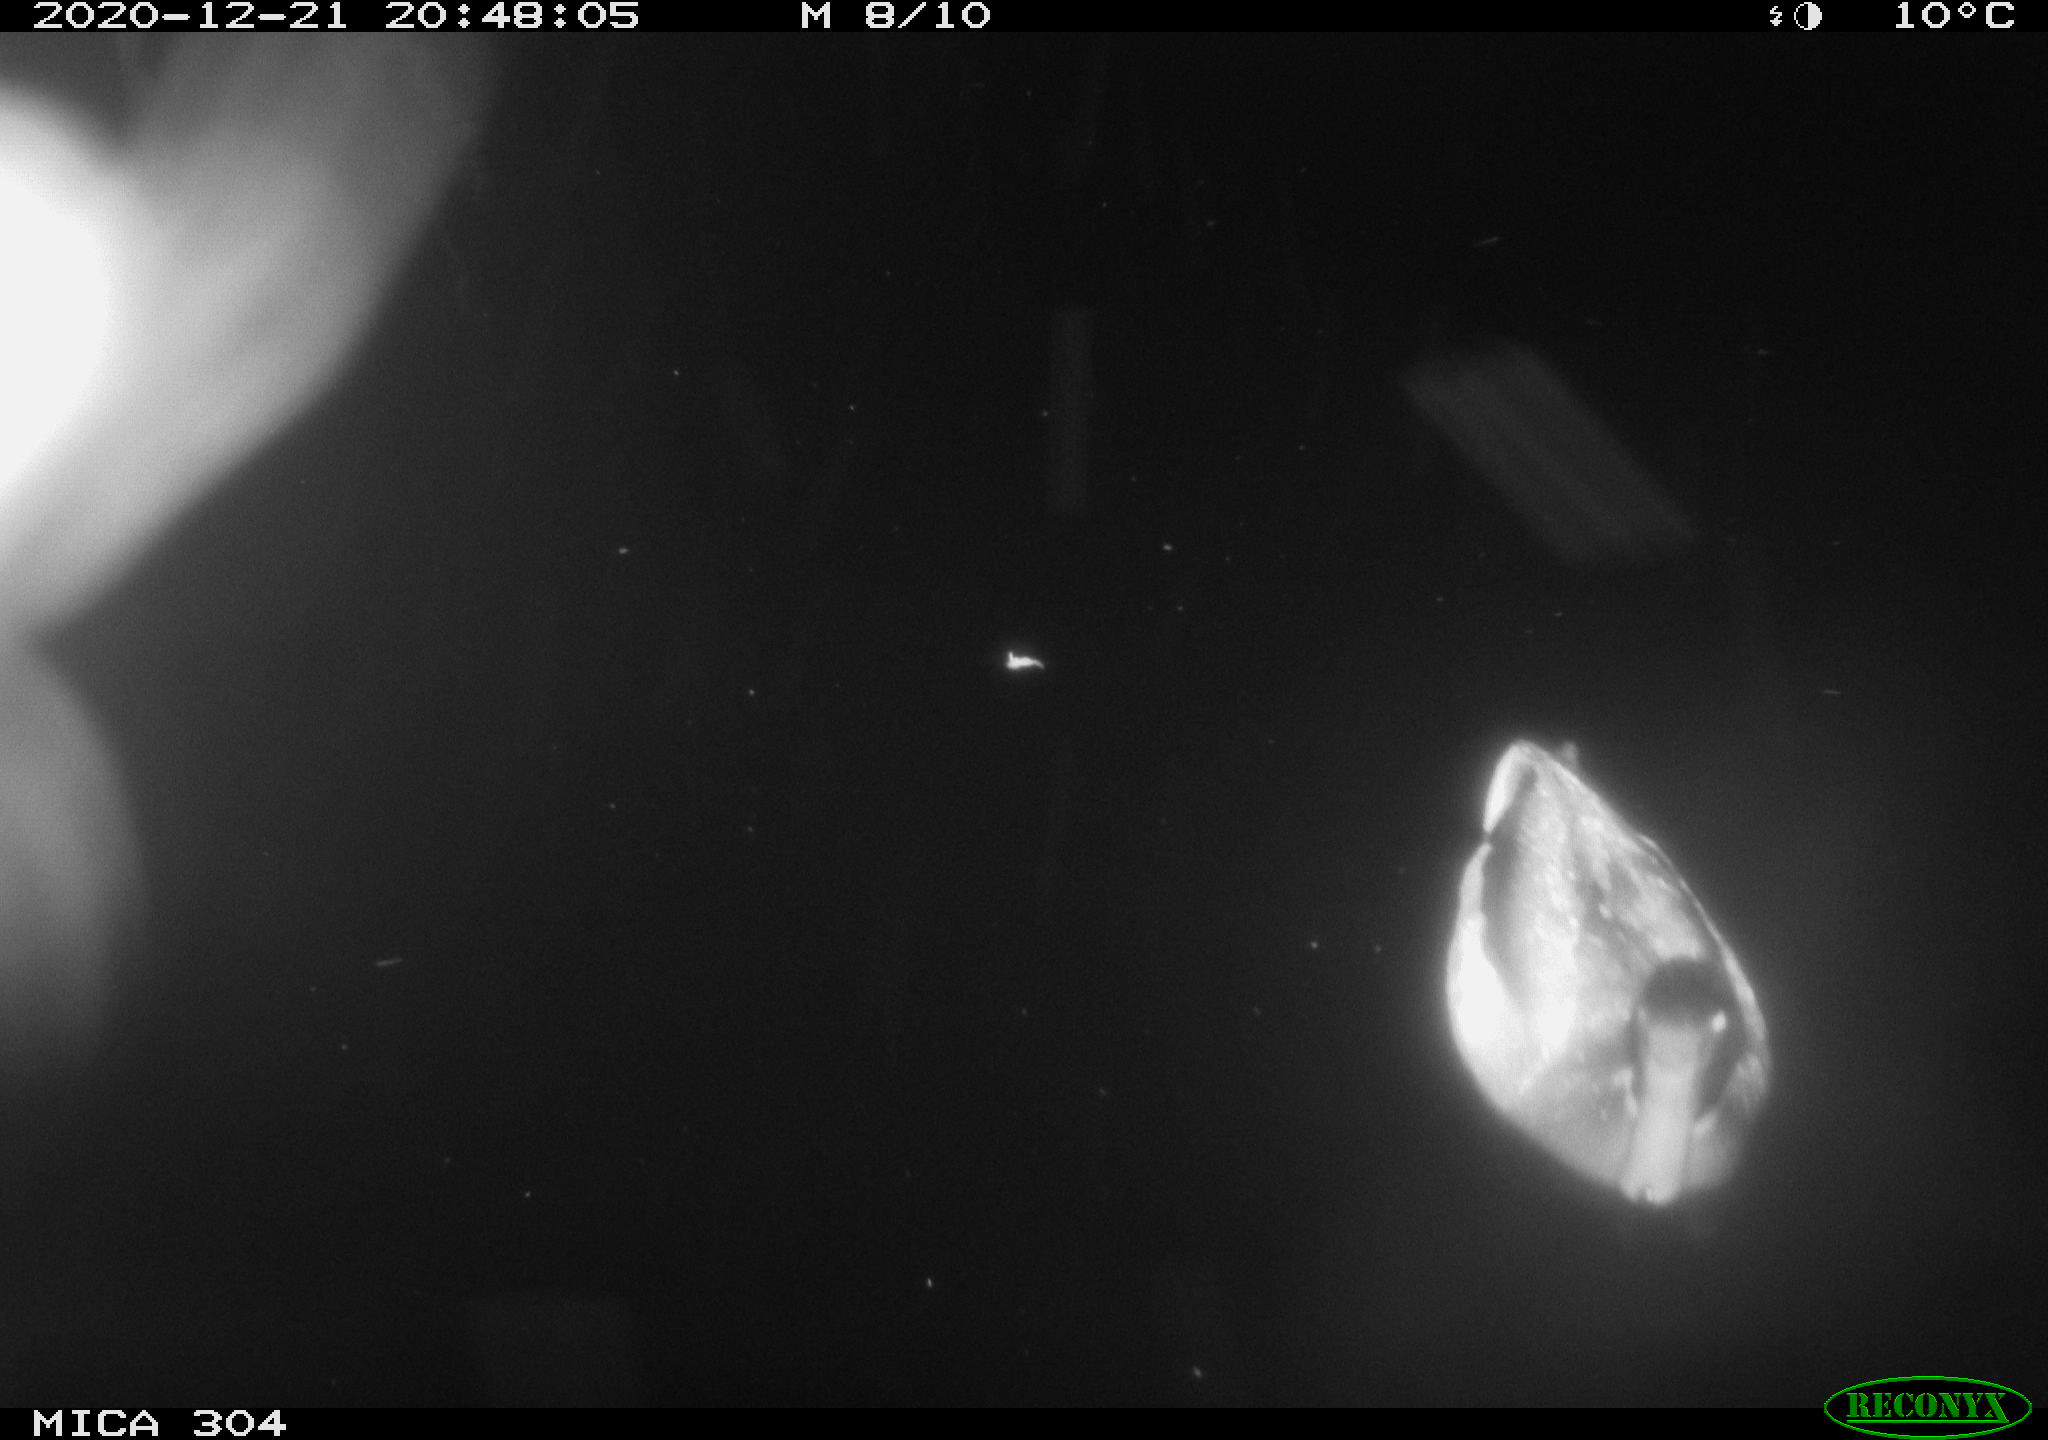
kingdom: Animalia
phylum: Chordata
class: Aves
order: Anseriformes
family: Anatidae
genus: Anas
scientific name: Anas platyrhynchos
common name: Mallard
